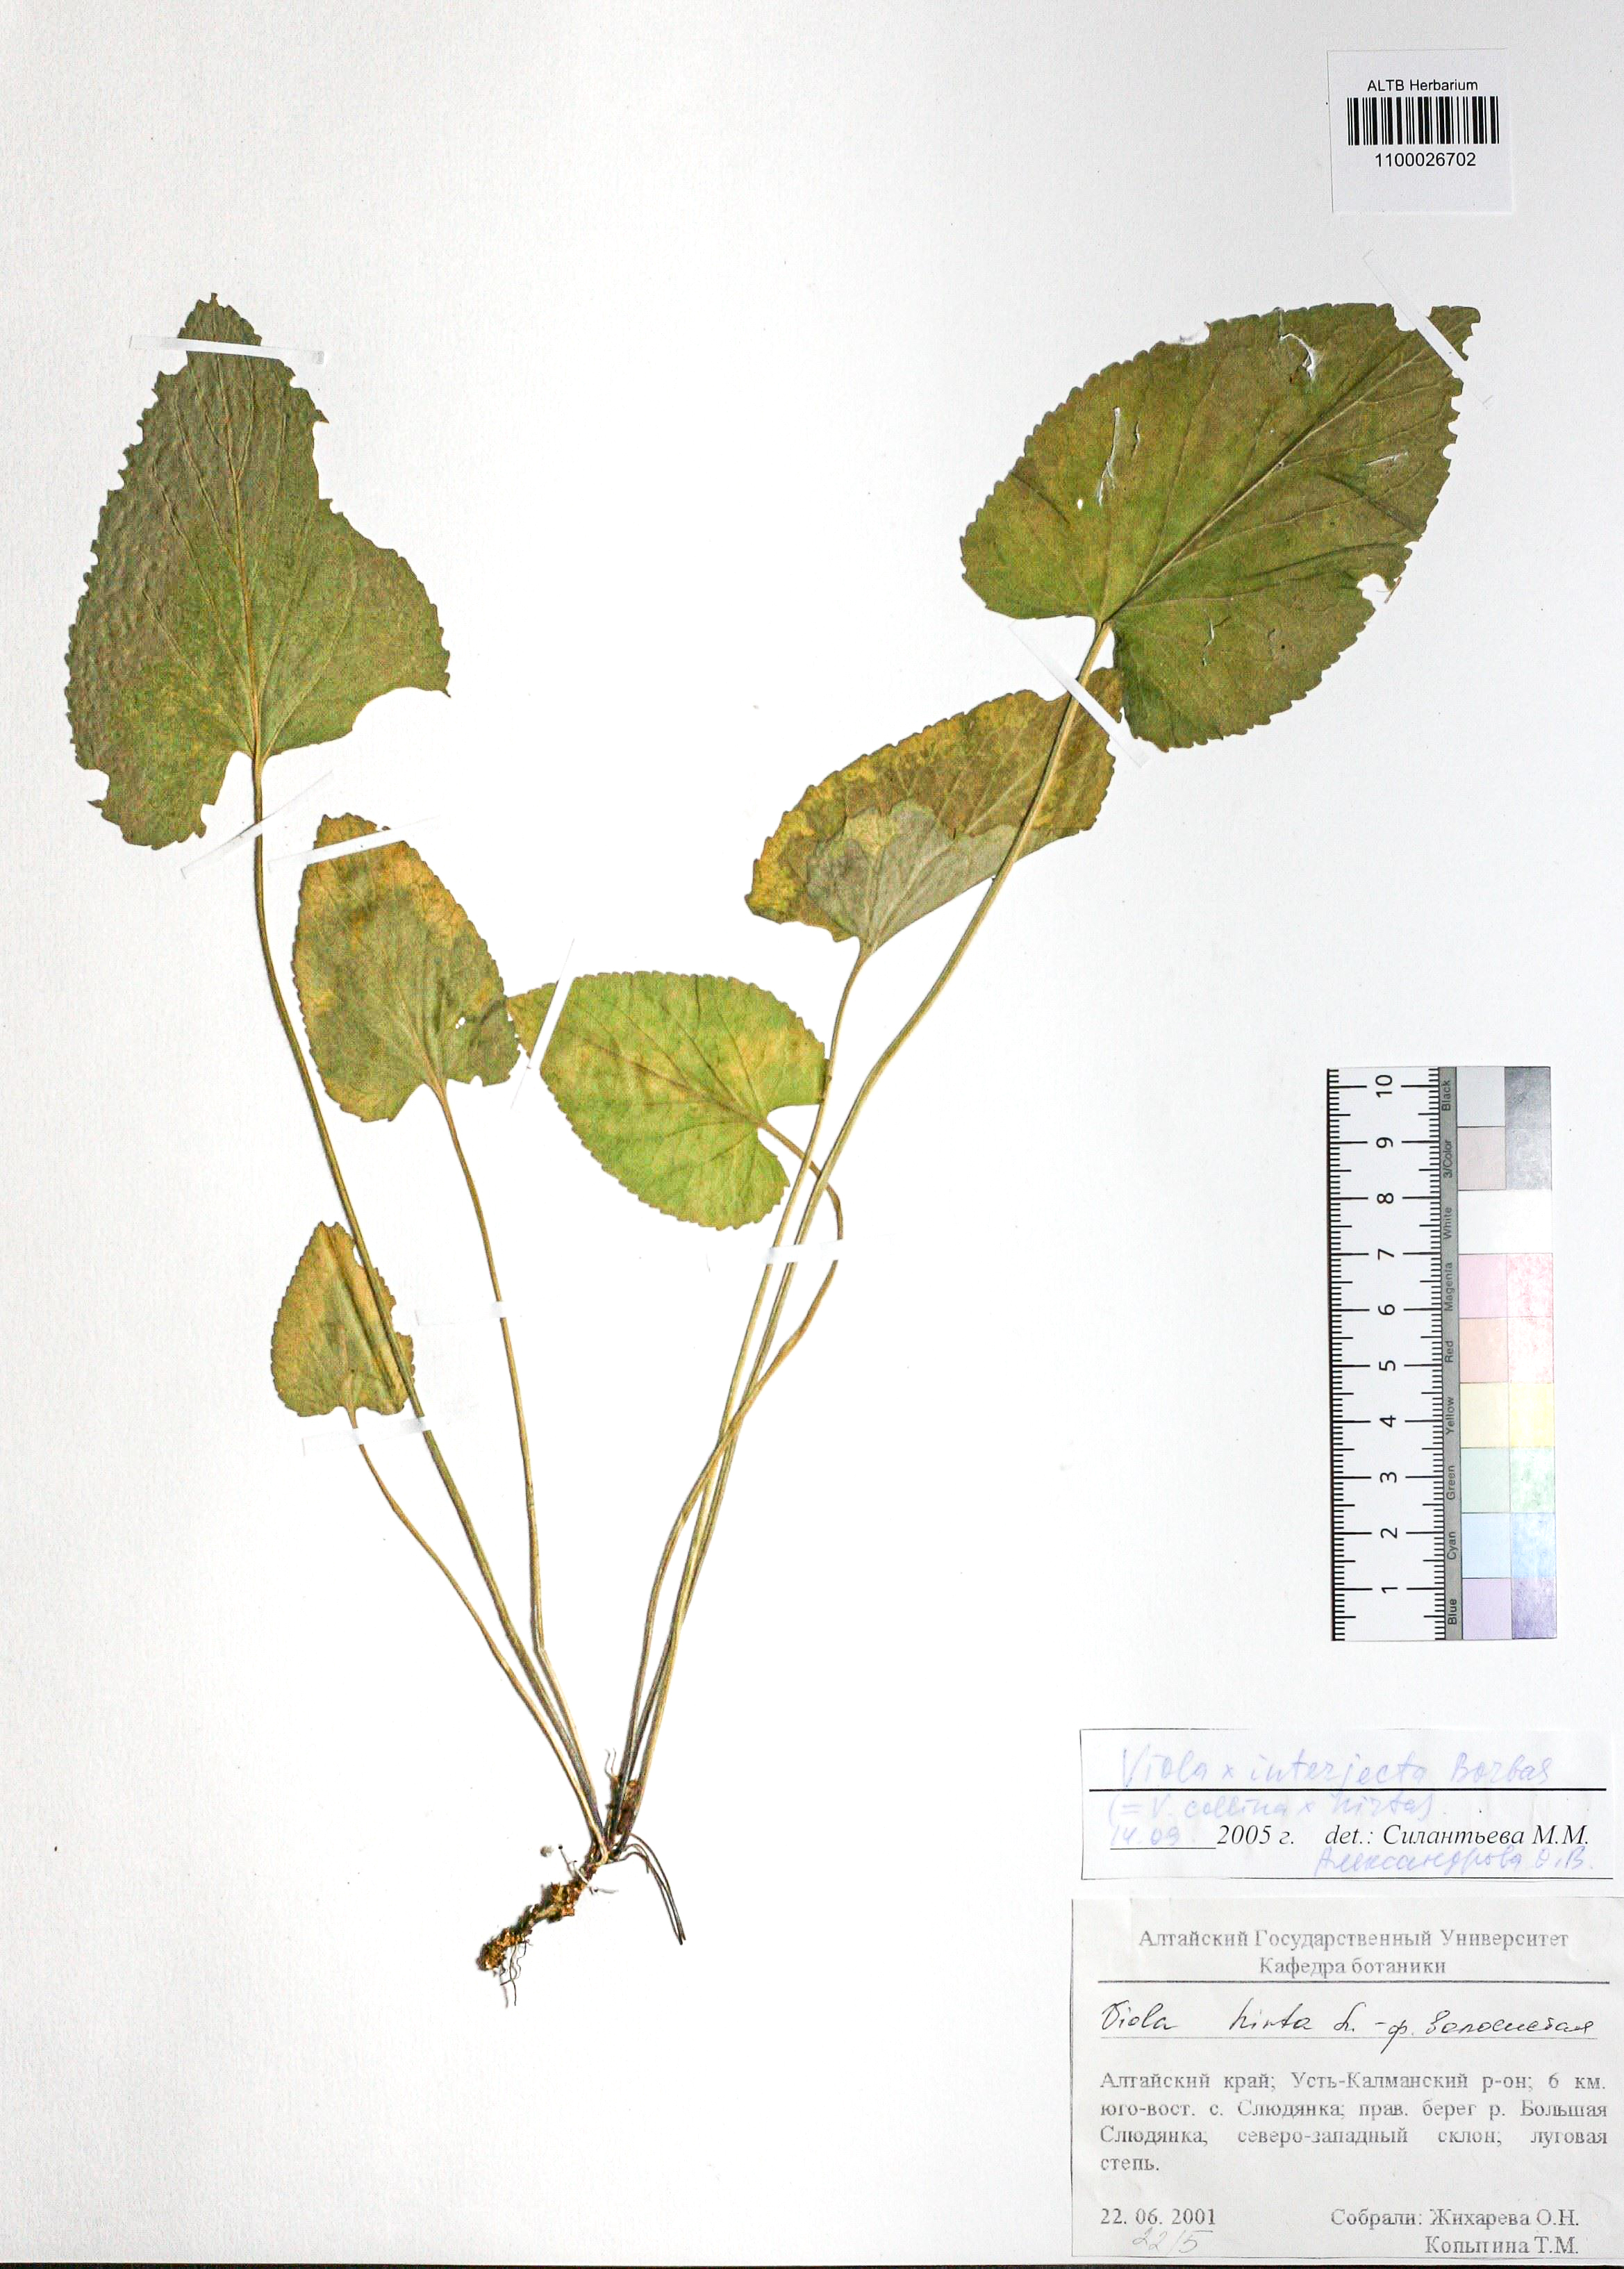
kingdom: Plantae
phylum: Tracheophyta
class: Magnoliopsida
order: Malpighiales
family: Violaceae
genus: Viola
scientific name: Viola interjecta
